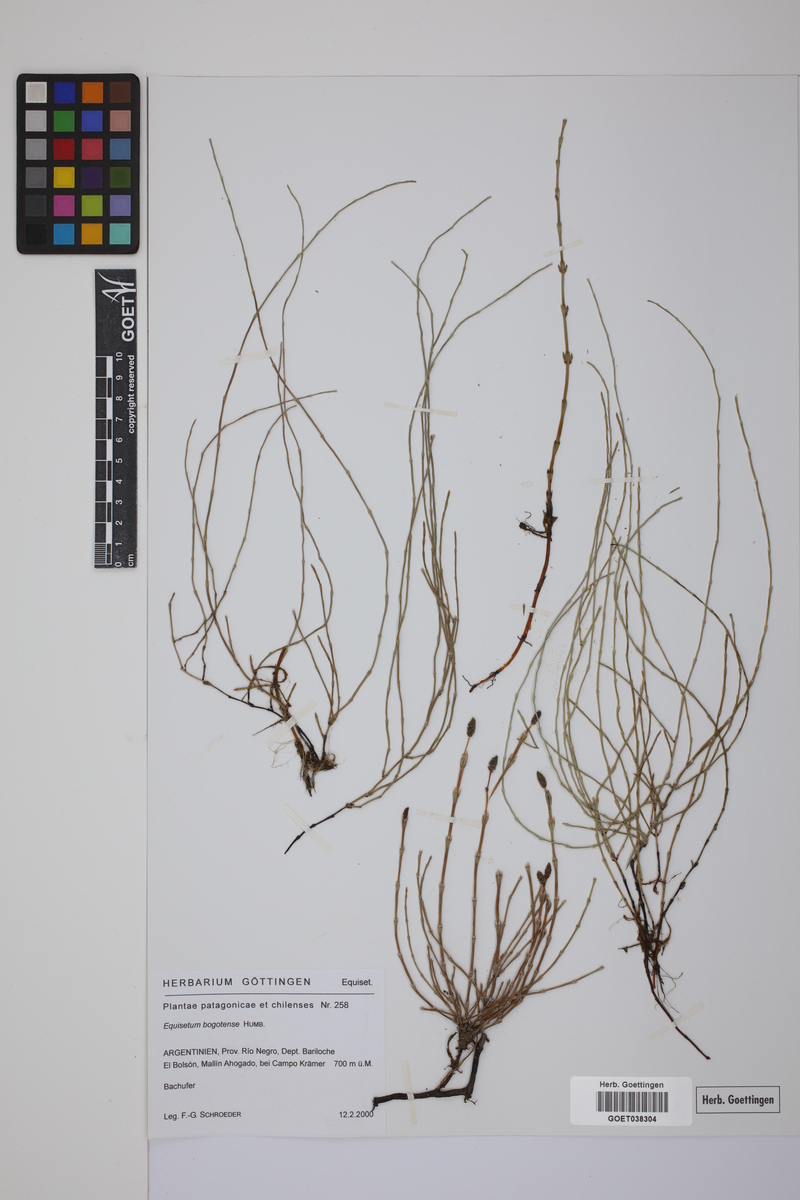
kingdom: Plantae
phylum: Tracheophyta
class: Polypodiopsida
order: Equisetales
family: Equisetaceae
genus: Equisetum
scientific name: Equisetum bogotense
